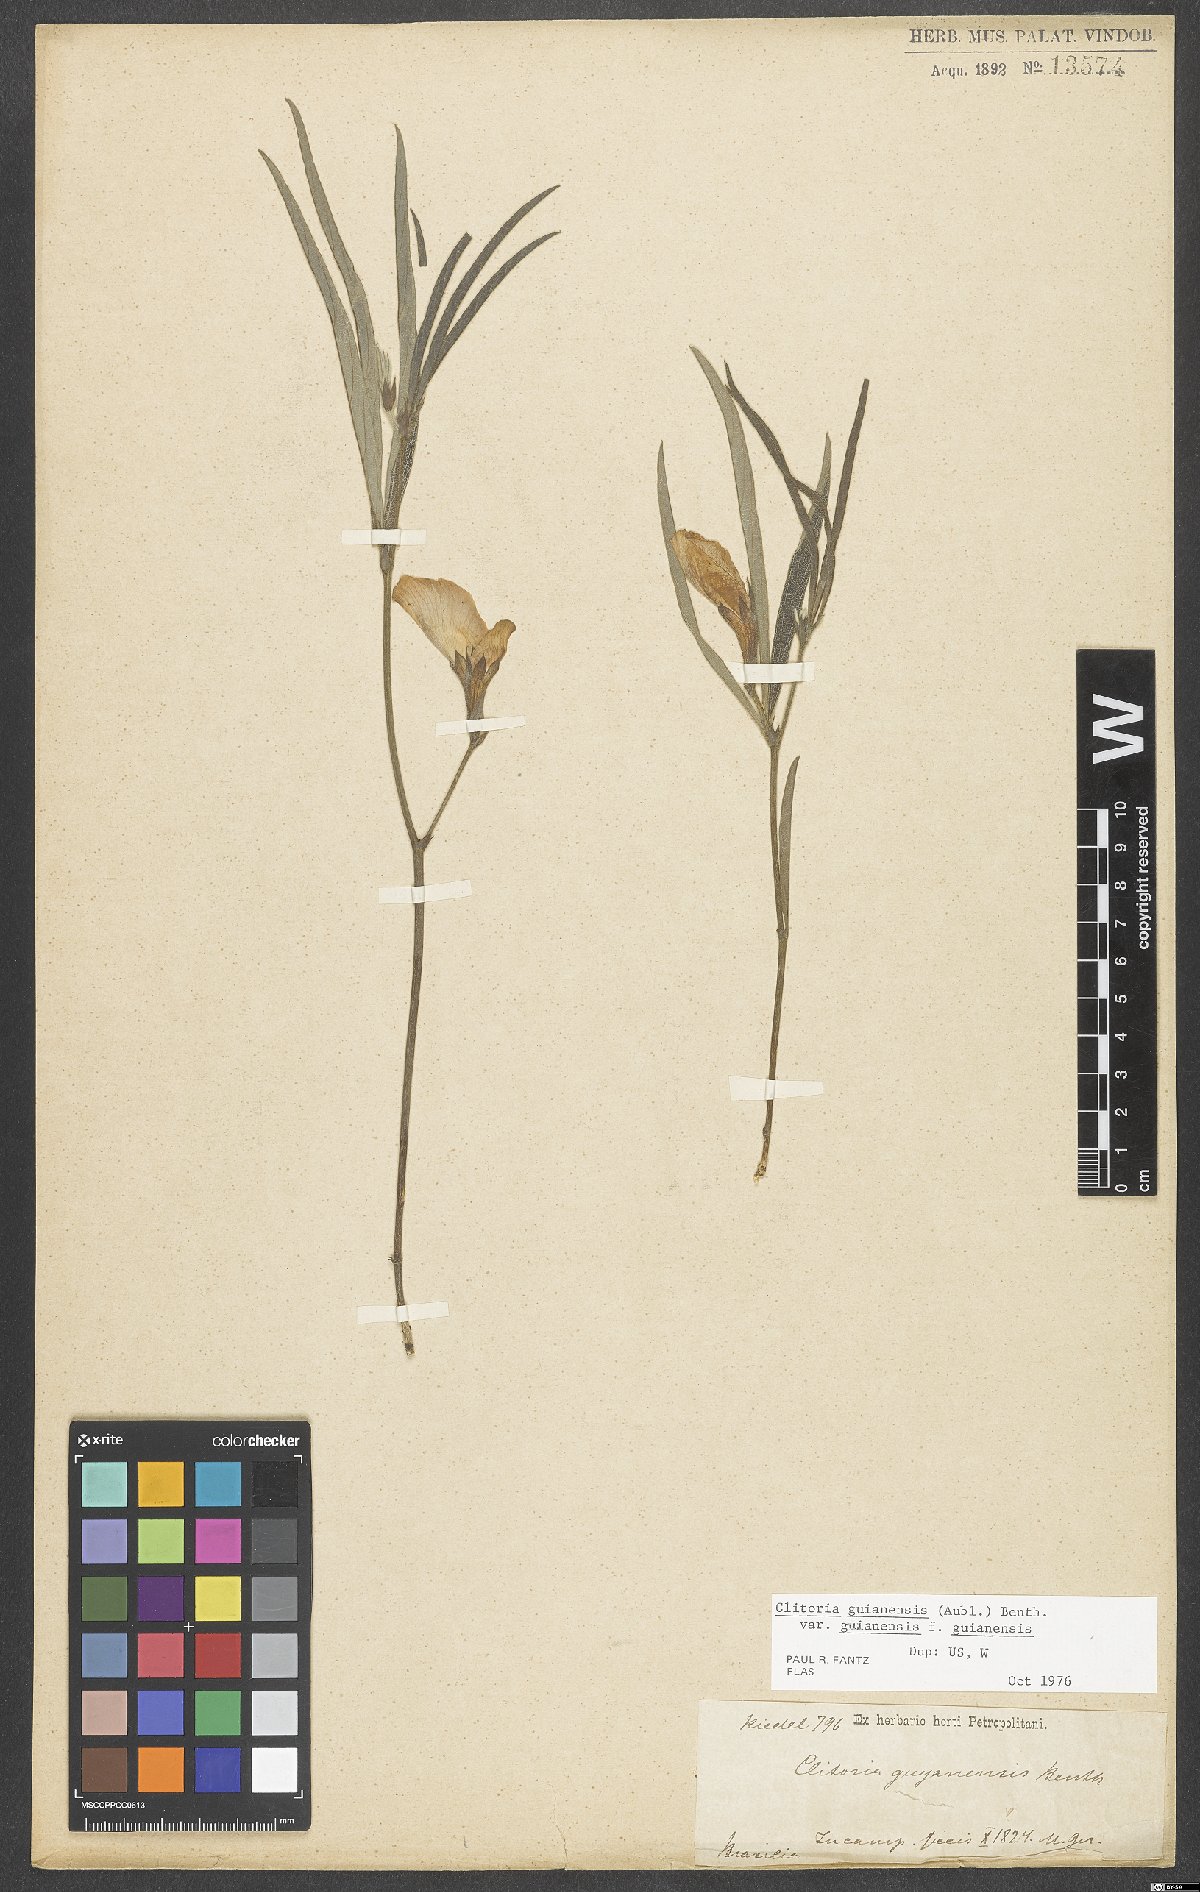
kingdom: Plantae
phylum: Tracheophyta
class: Magnoliopsida
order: Fabales
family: Fabaceae
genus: Clitoria
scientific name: Clitoria guianensis
